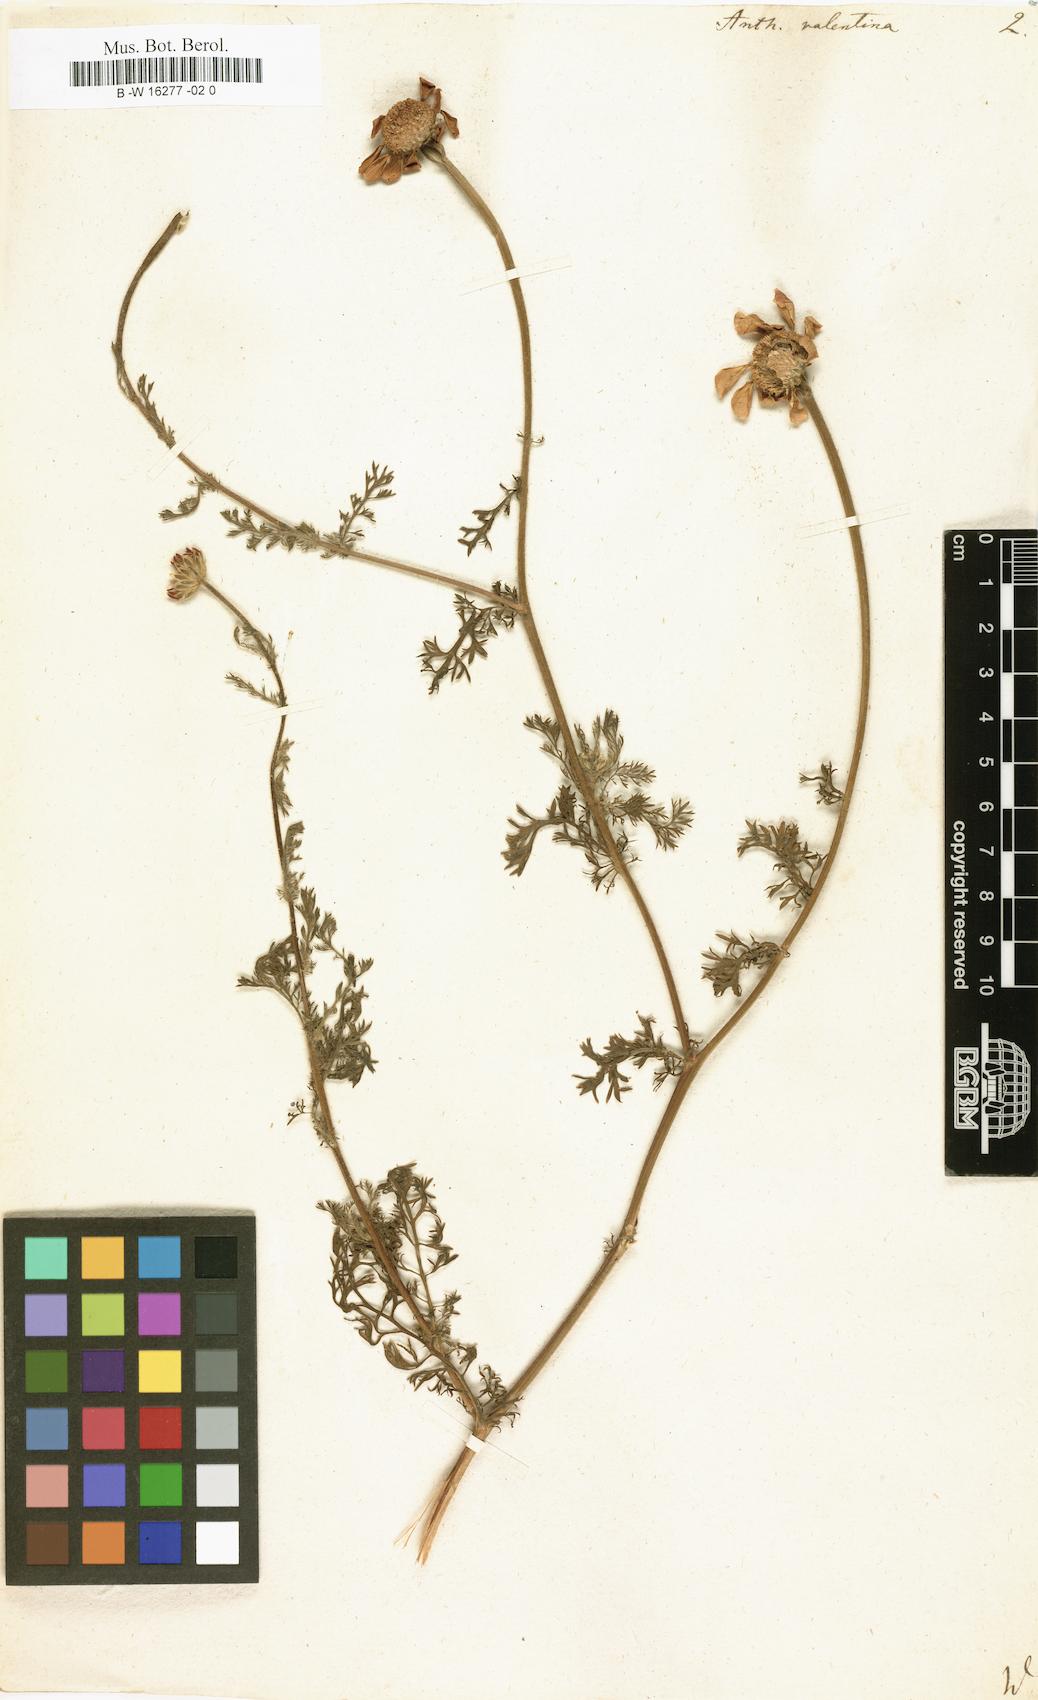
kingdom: Plantae
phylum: Tracheophyta
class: Magnoliopsida
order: Asterales
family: Asteraceae
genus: Anacyclus
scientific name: Anacyclus radiatus
